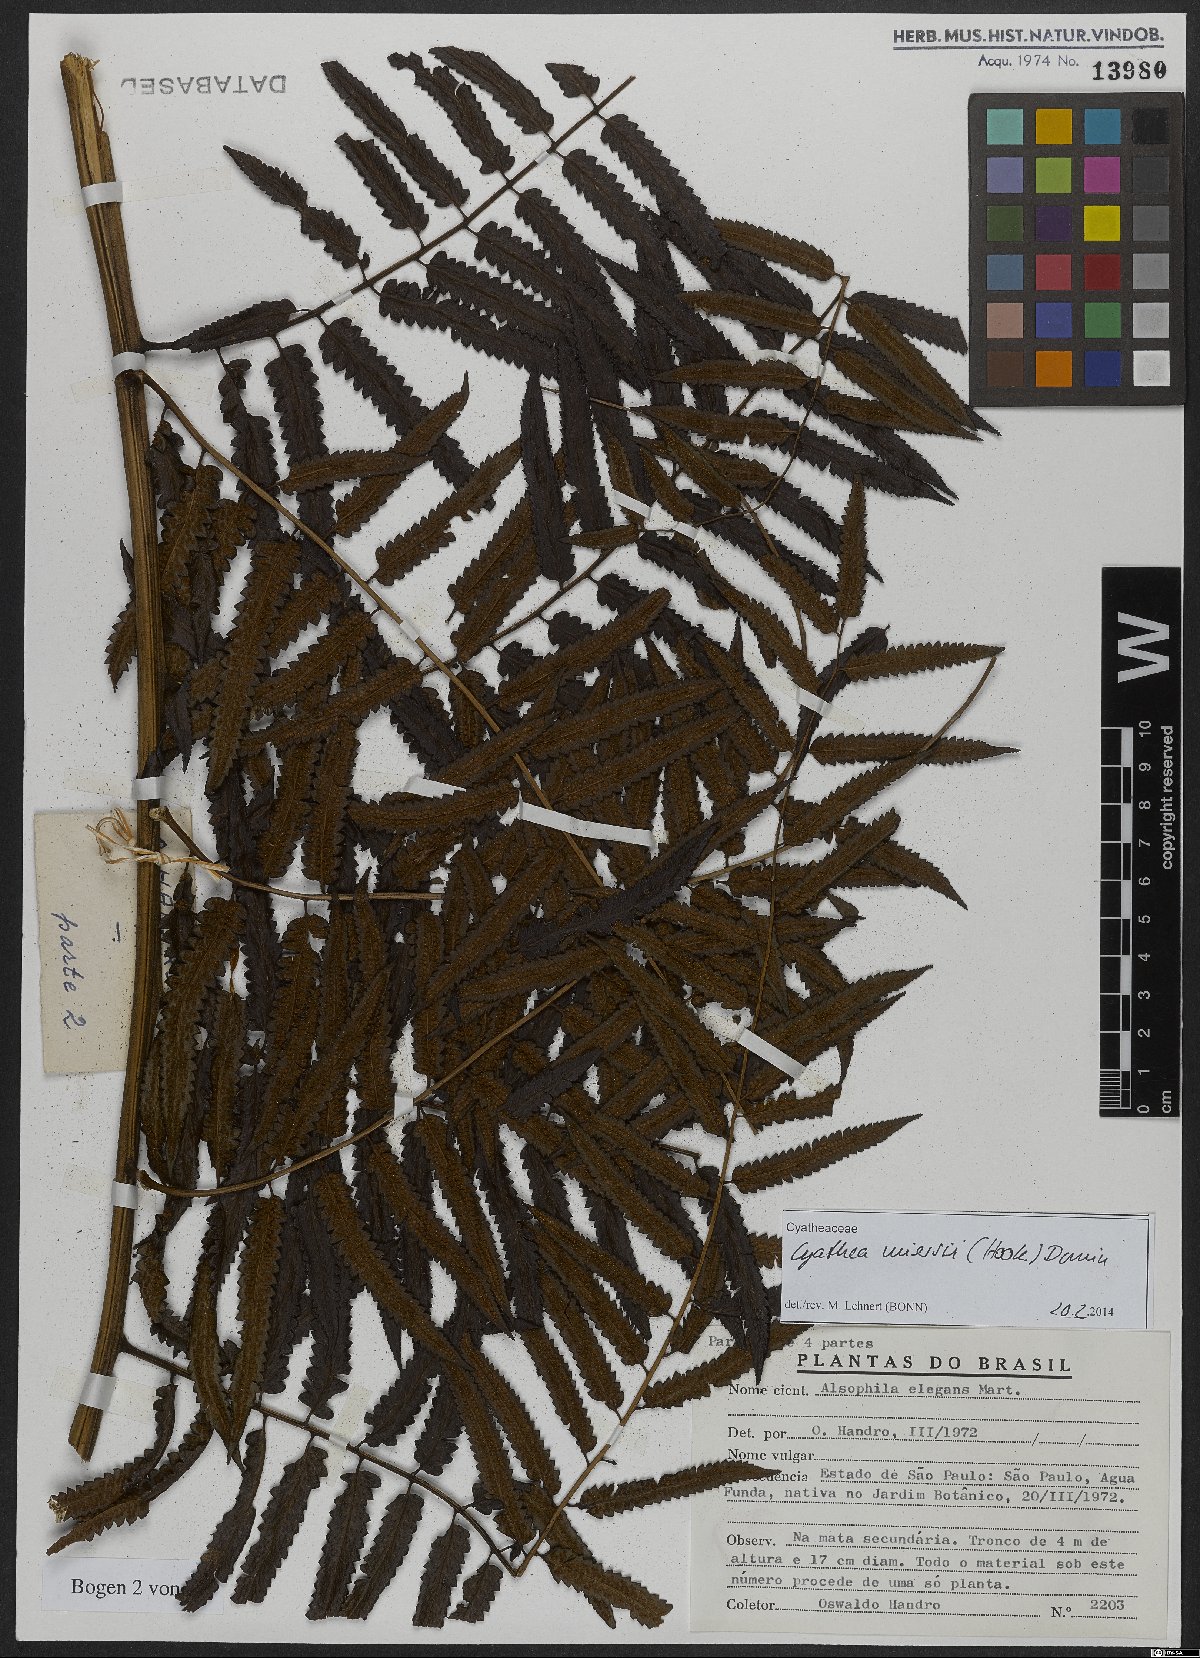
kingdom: Plantae
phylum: Tracheophyta
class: Polypodiopsida
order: Cyatheales
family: Cyatheaceae
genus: Cyathea
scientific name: Cyathea miersii
